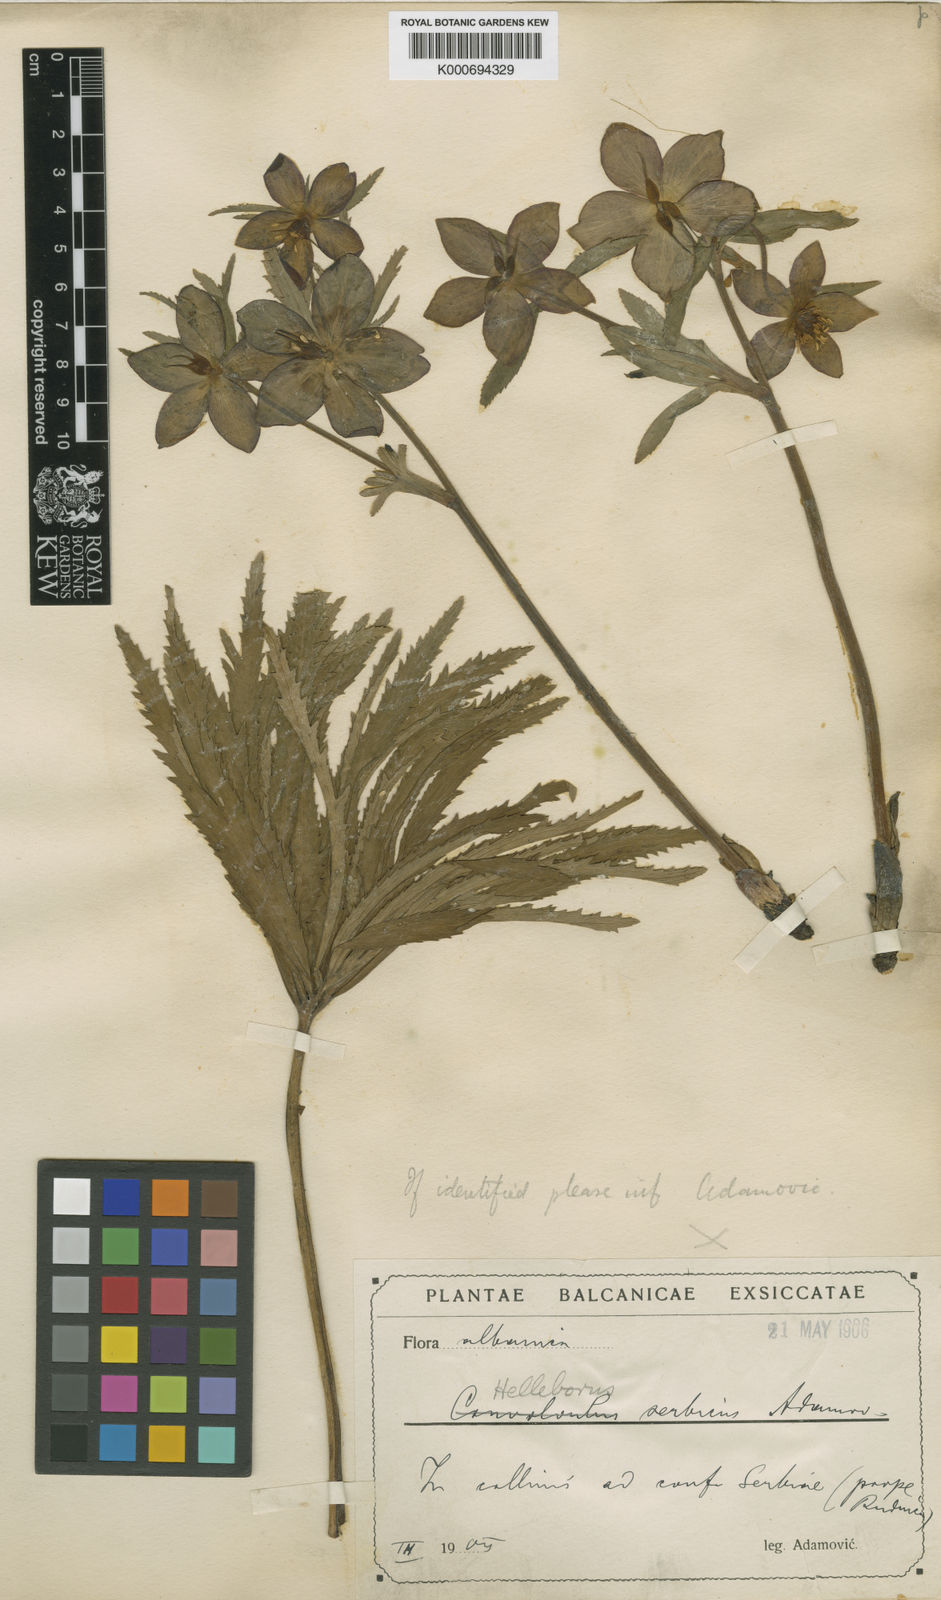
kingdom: Plantae
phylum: Tracheophyta
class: Magnoliopsida
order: Ranunculales
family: Ranunculaceae
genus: Helleborus
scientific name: Helleborus multifidus
